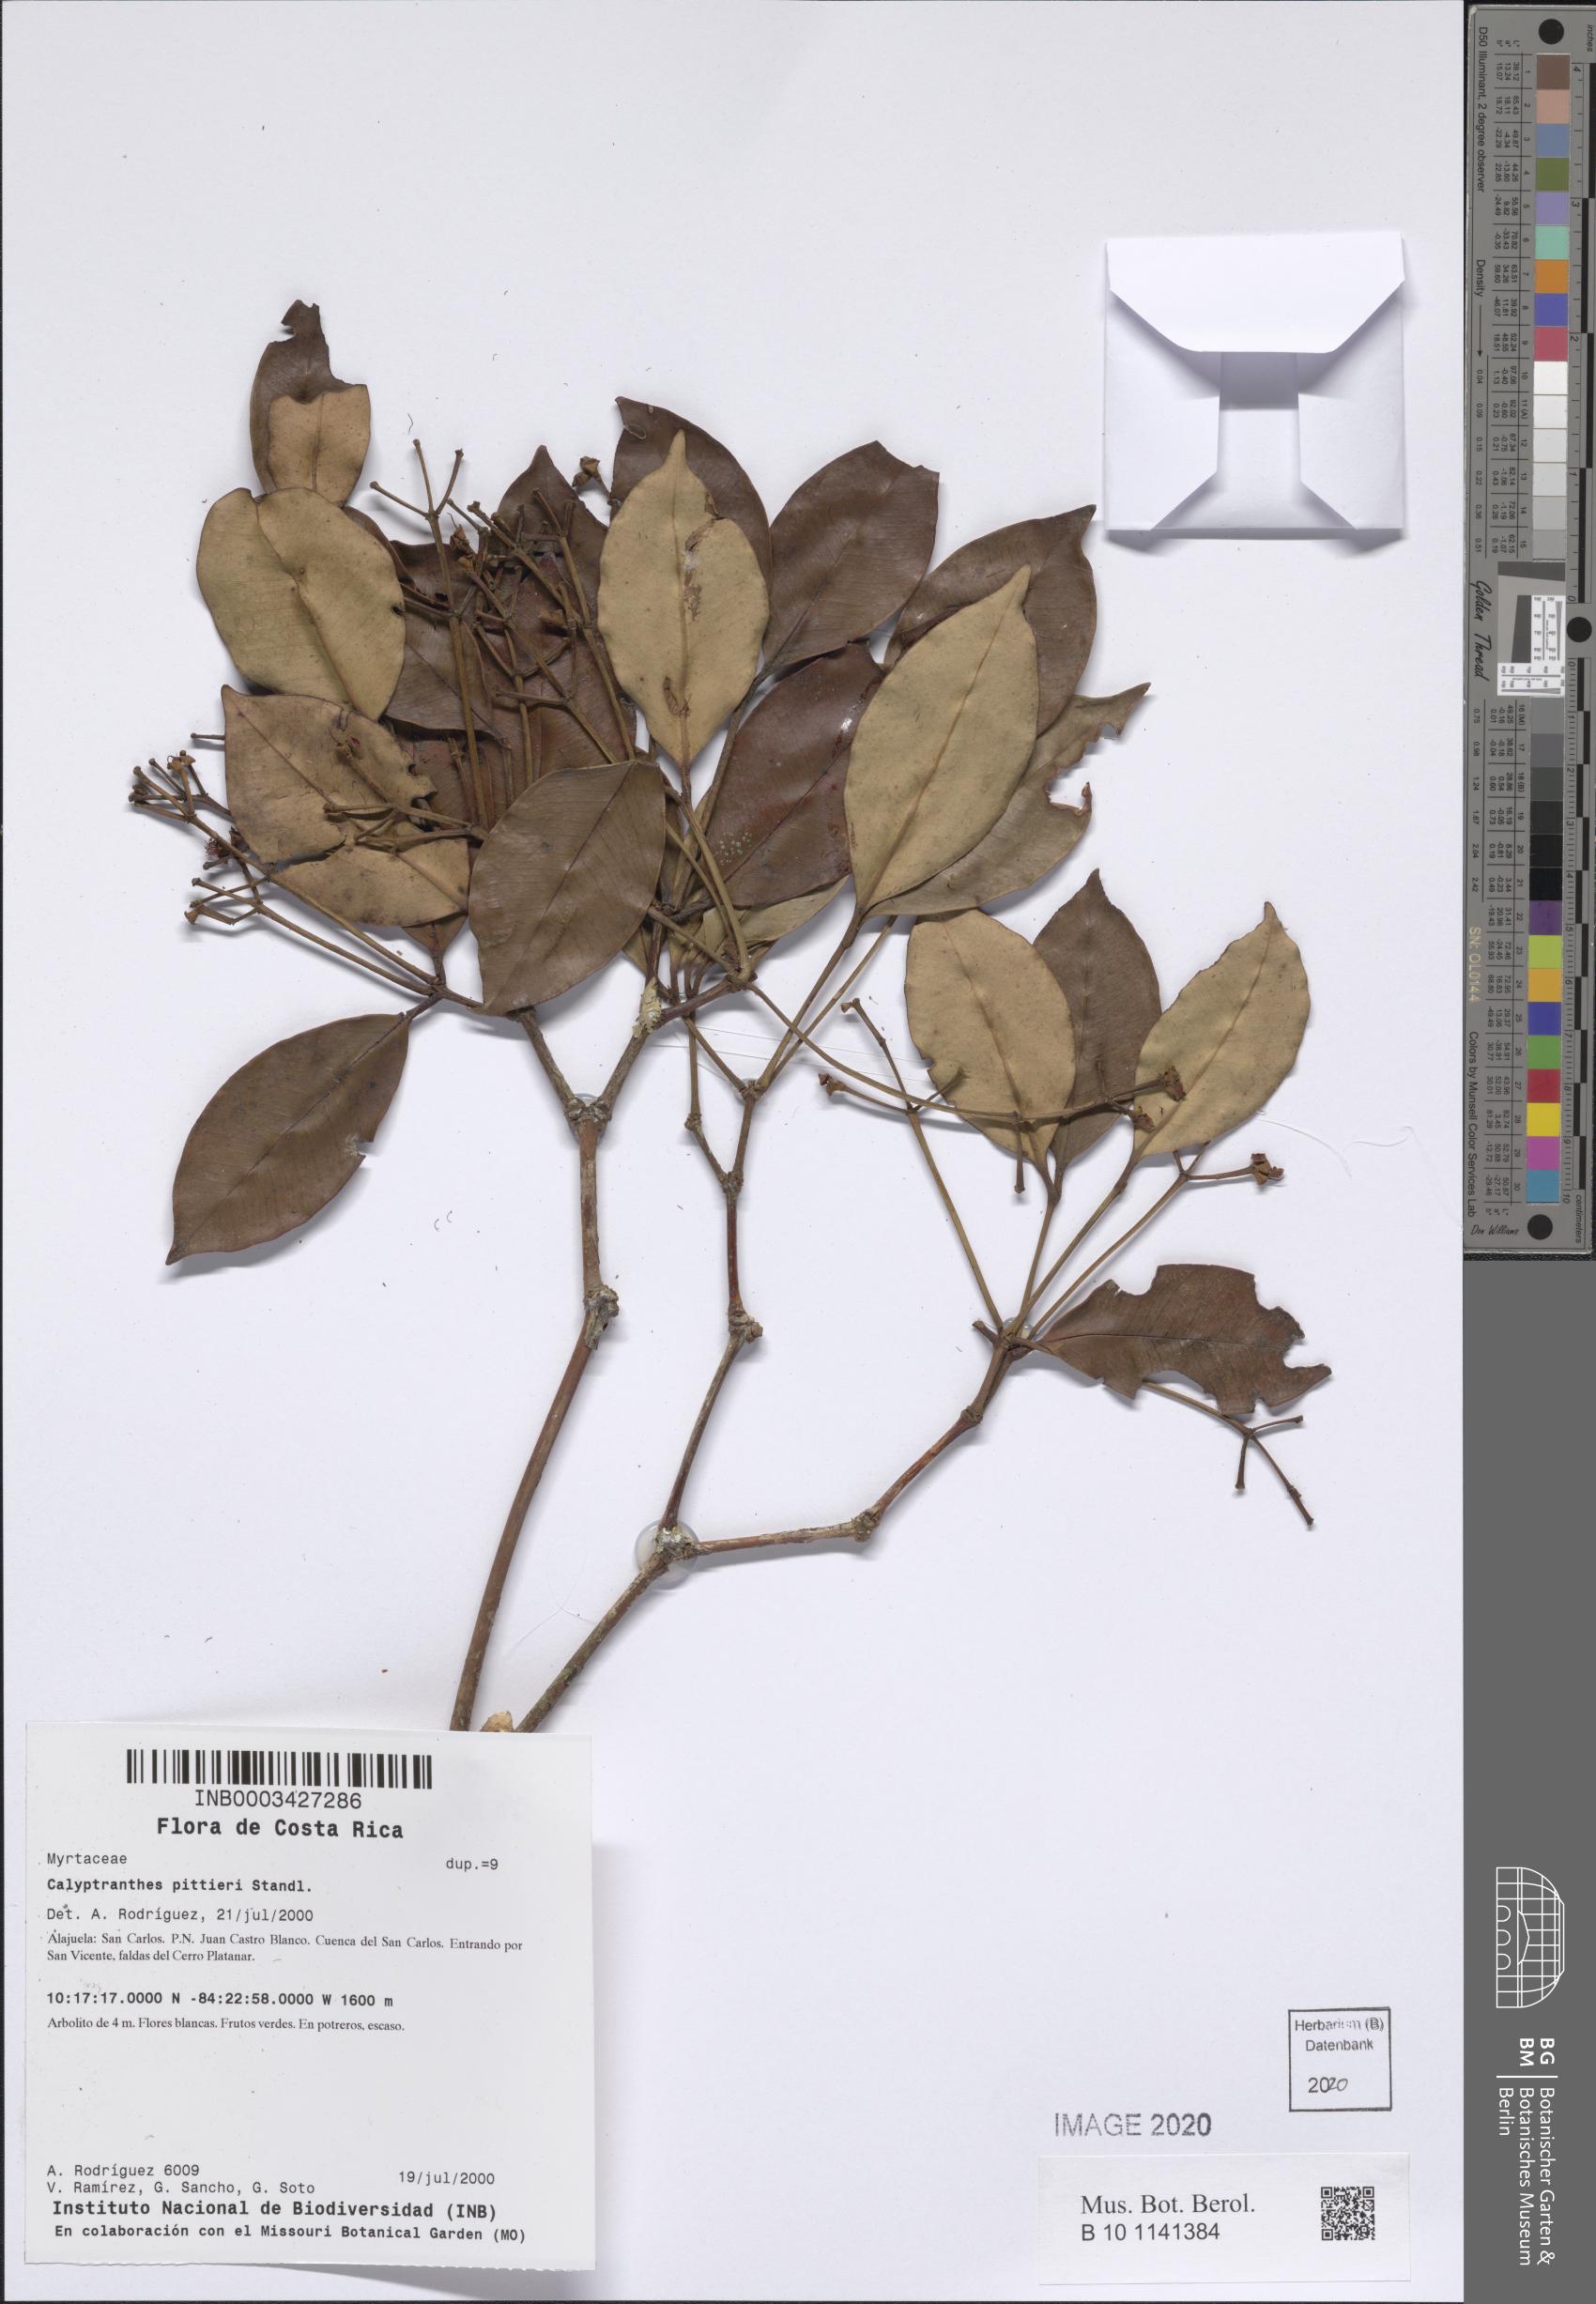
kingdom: Plantae
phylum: Tracheophyta
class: Magnoliopsida
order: Myrtales
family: Myrtaceae
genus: Myrcia
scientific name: Myrcia pittieri
